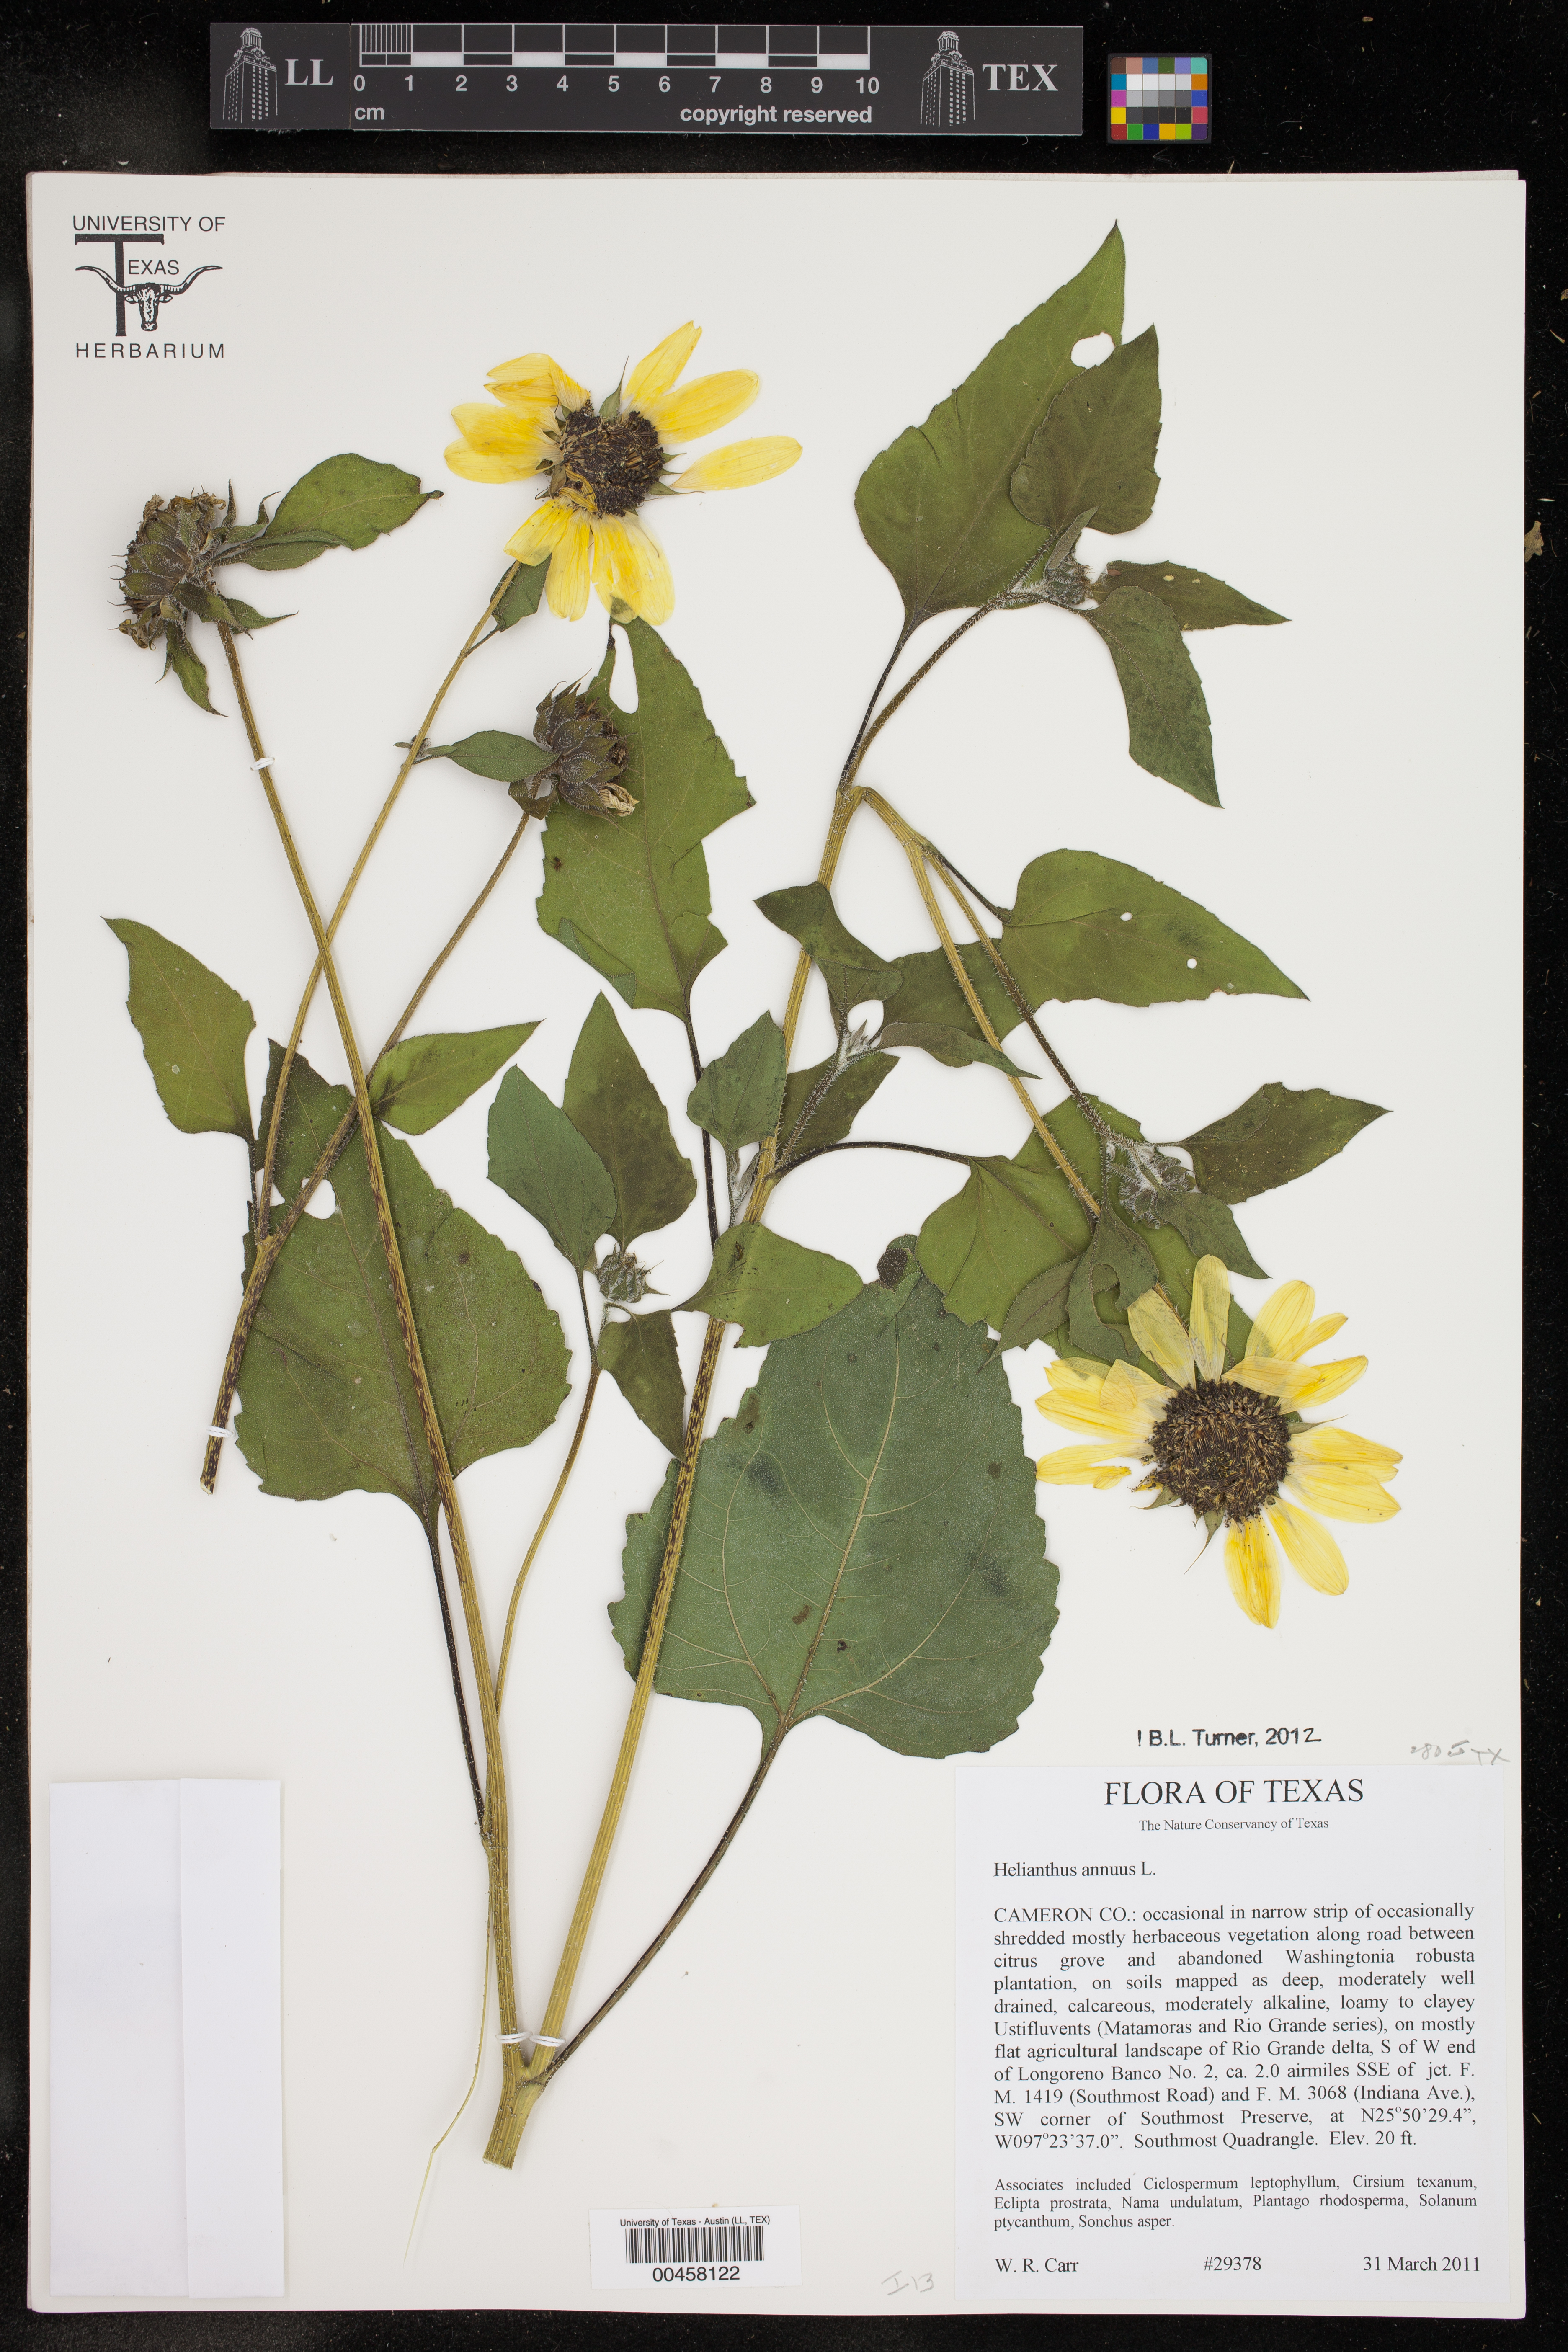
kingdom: Plantae
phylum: Tracheophyta
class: Magnoliopsida
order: Asterales
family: Asteraceae
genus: Helianthus
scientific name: Helianthus annuus
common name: Sunflower
